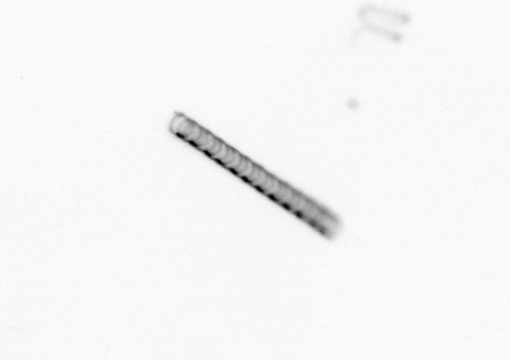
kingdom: Chromista
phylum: Ochrophyta
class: Bacillariophyceae
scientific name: Bacillariophyceae
